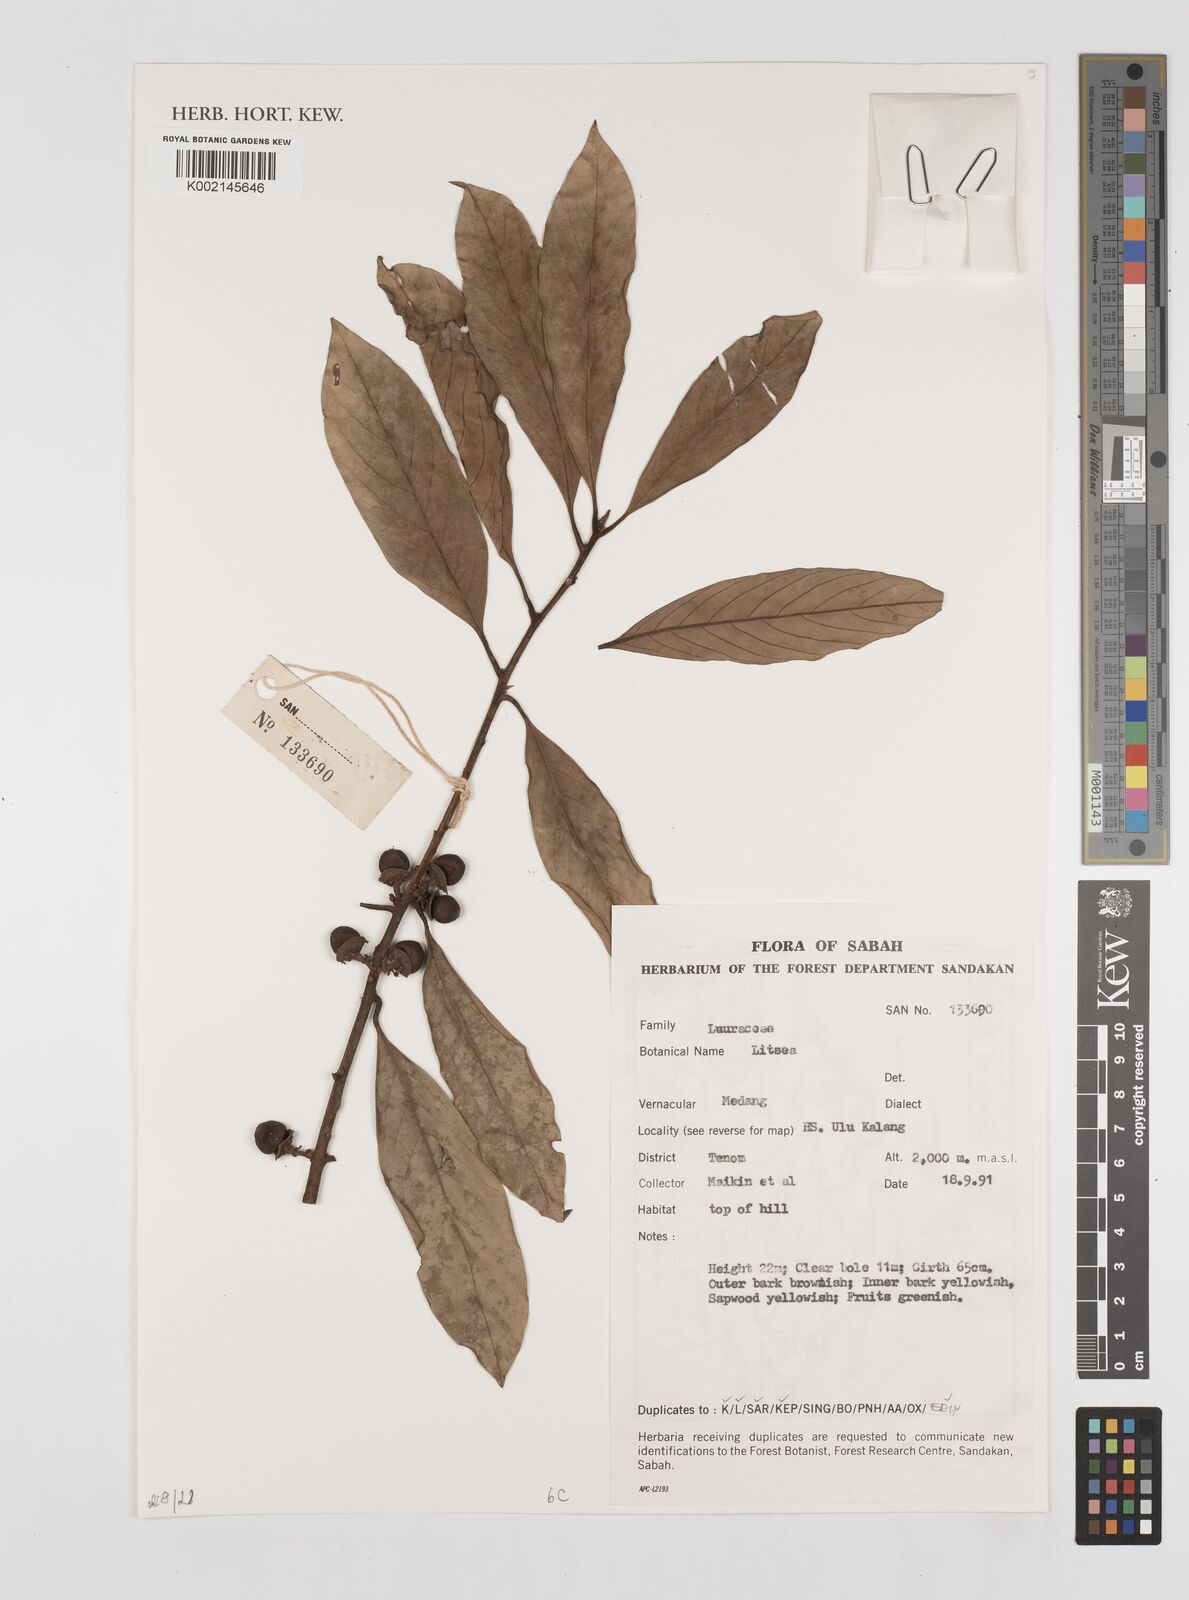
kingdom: Plantae
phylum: Tracheophyta
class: Magnoliopsida
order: Laurales
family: Lauraceae
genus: Litsea
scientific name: Litsea
